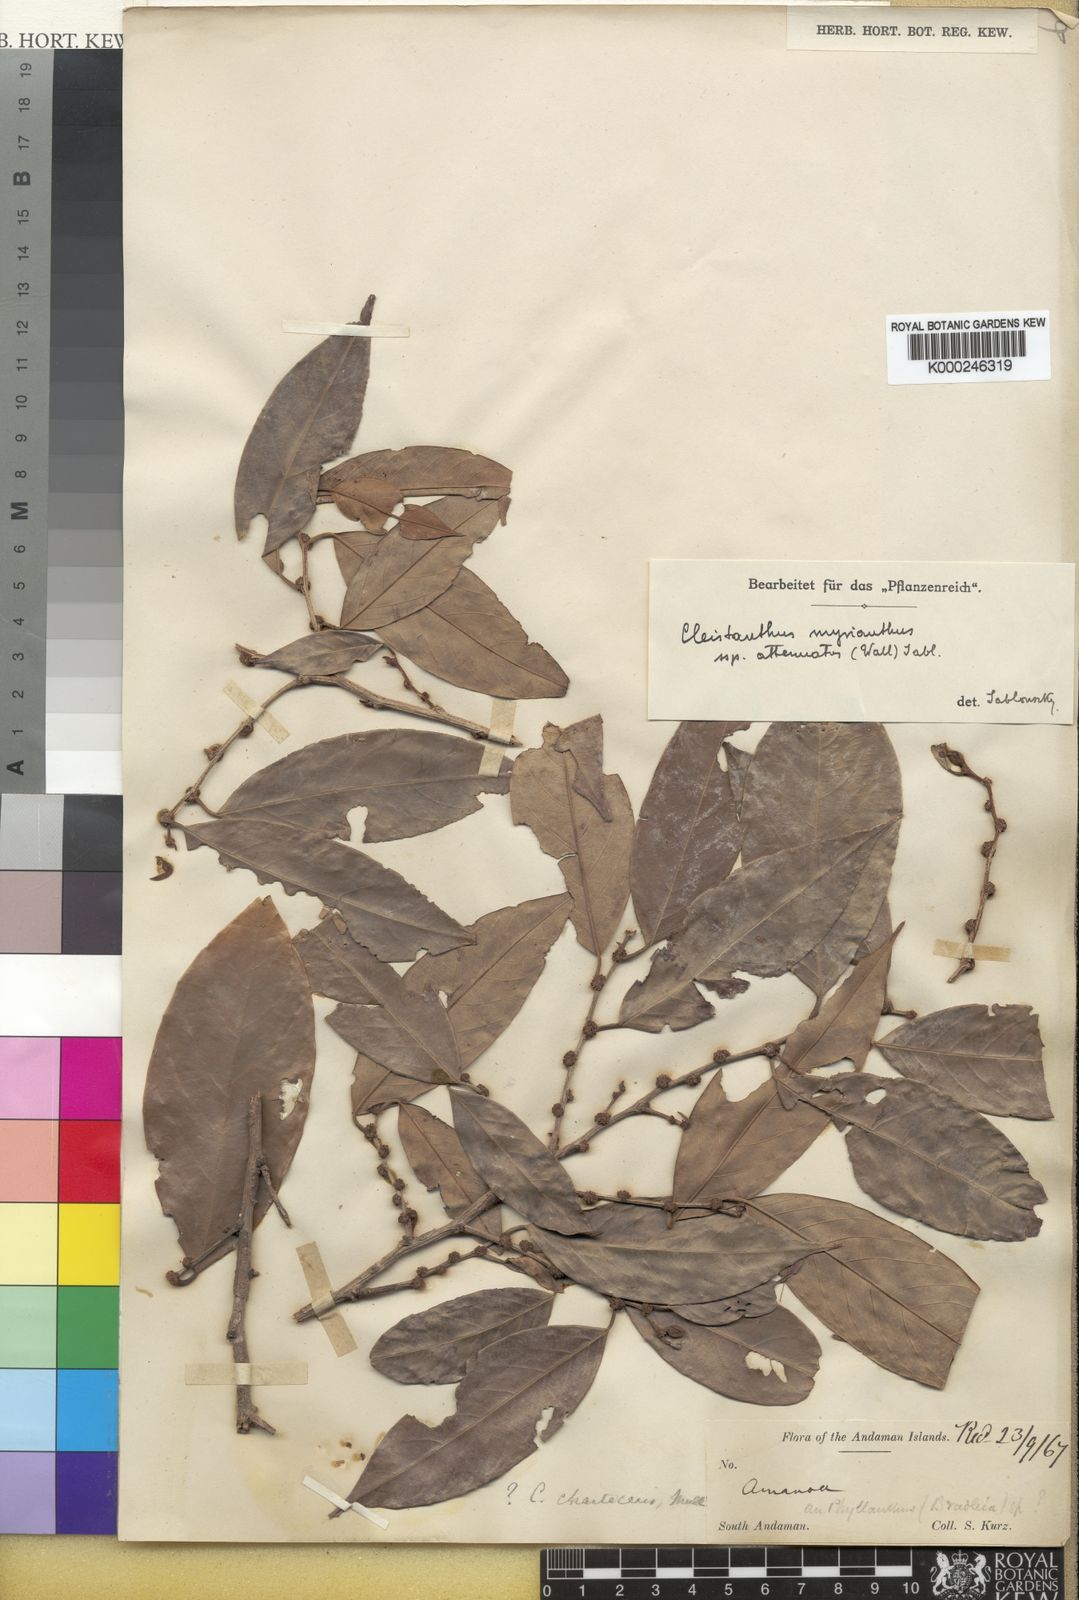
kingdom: Plantae
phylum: Tracheophyta
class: Magnoliopsida
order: Malpighiales
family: Phyllanthaceae
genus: Cleistanthus
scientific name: Cleistanthus oblongifolius
